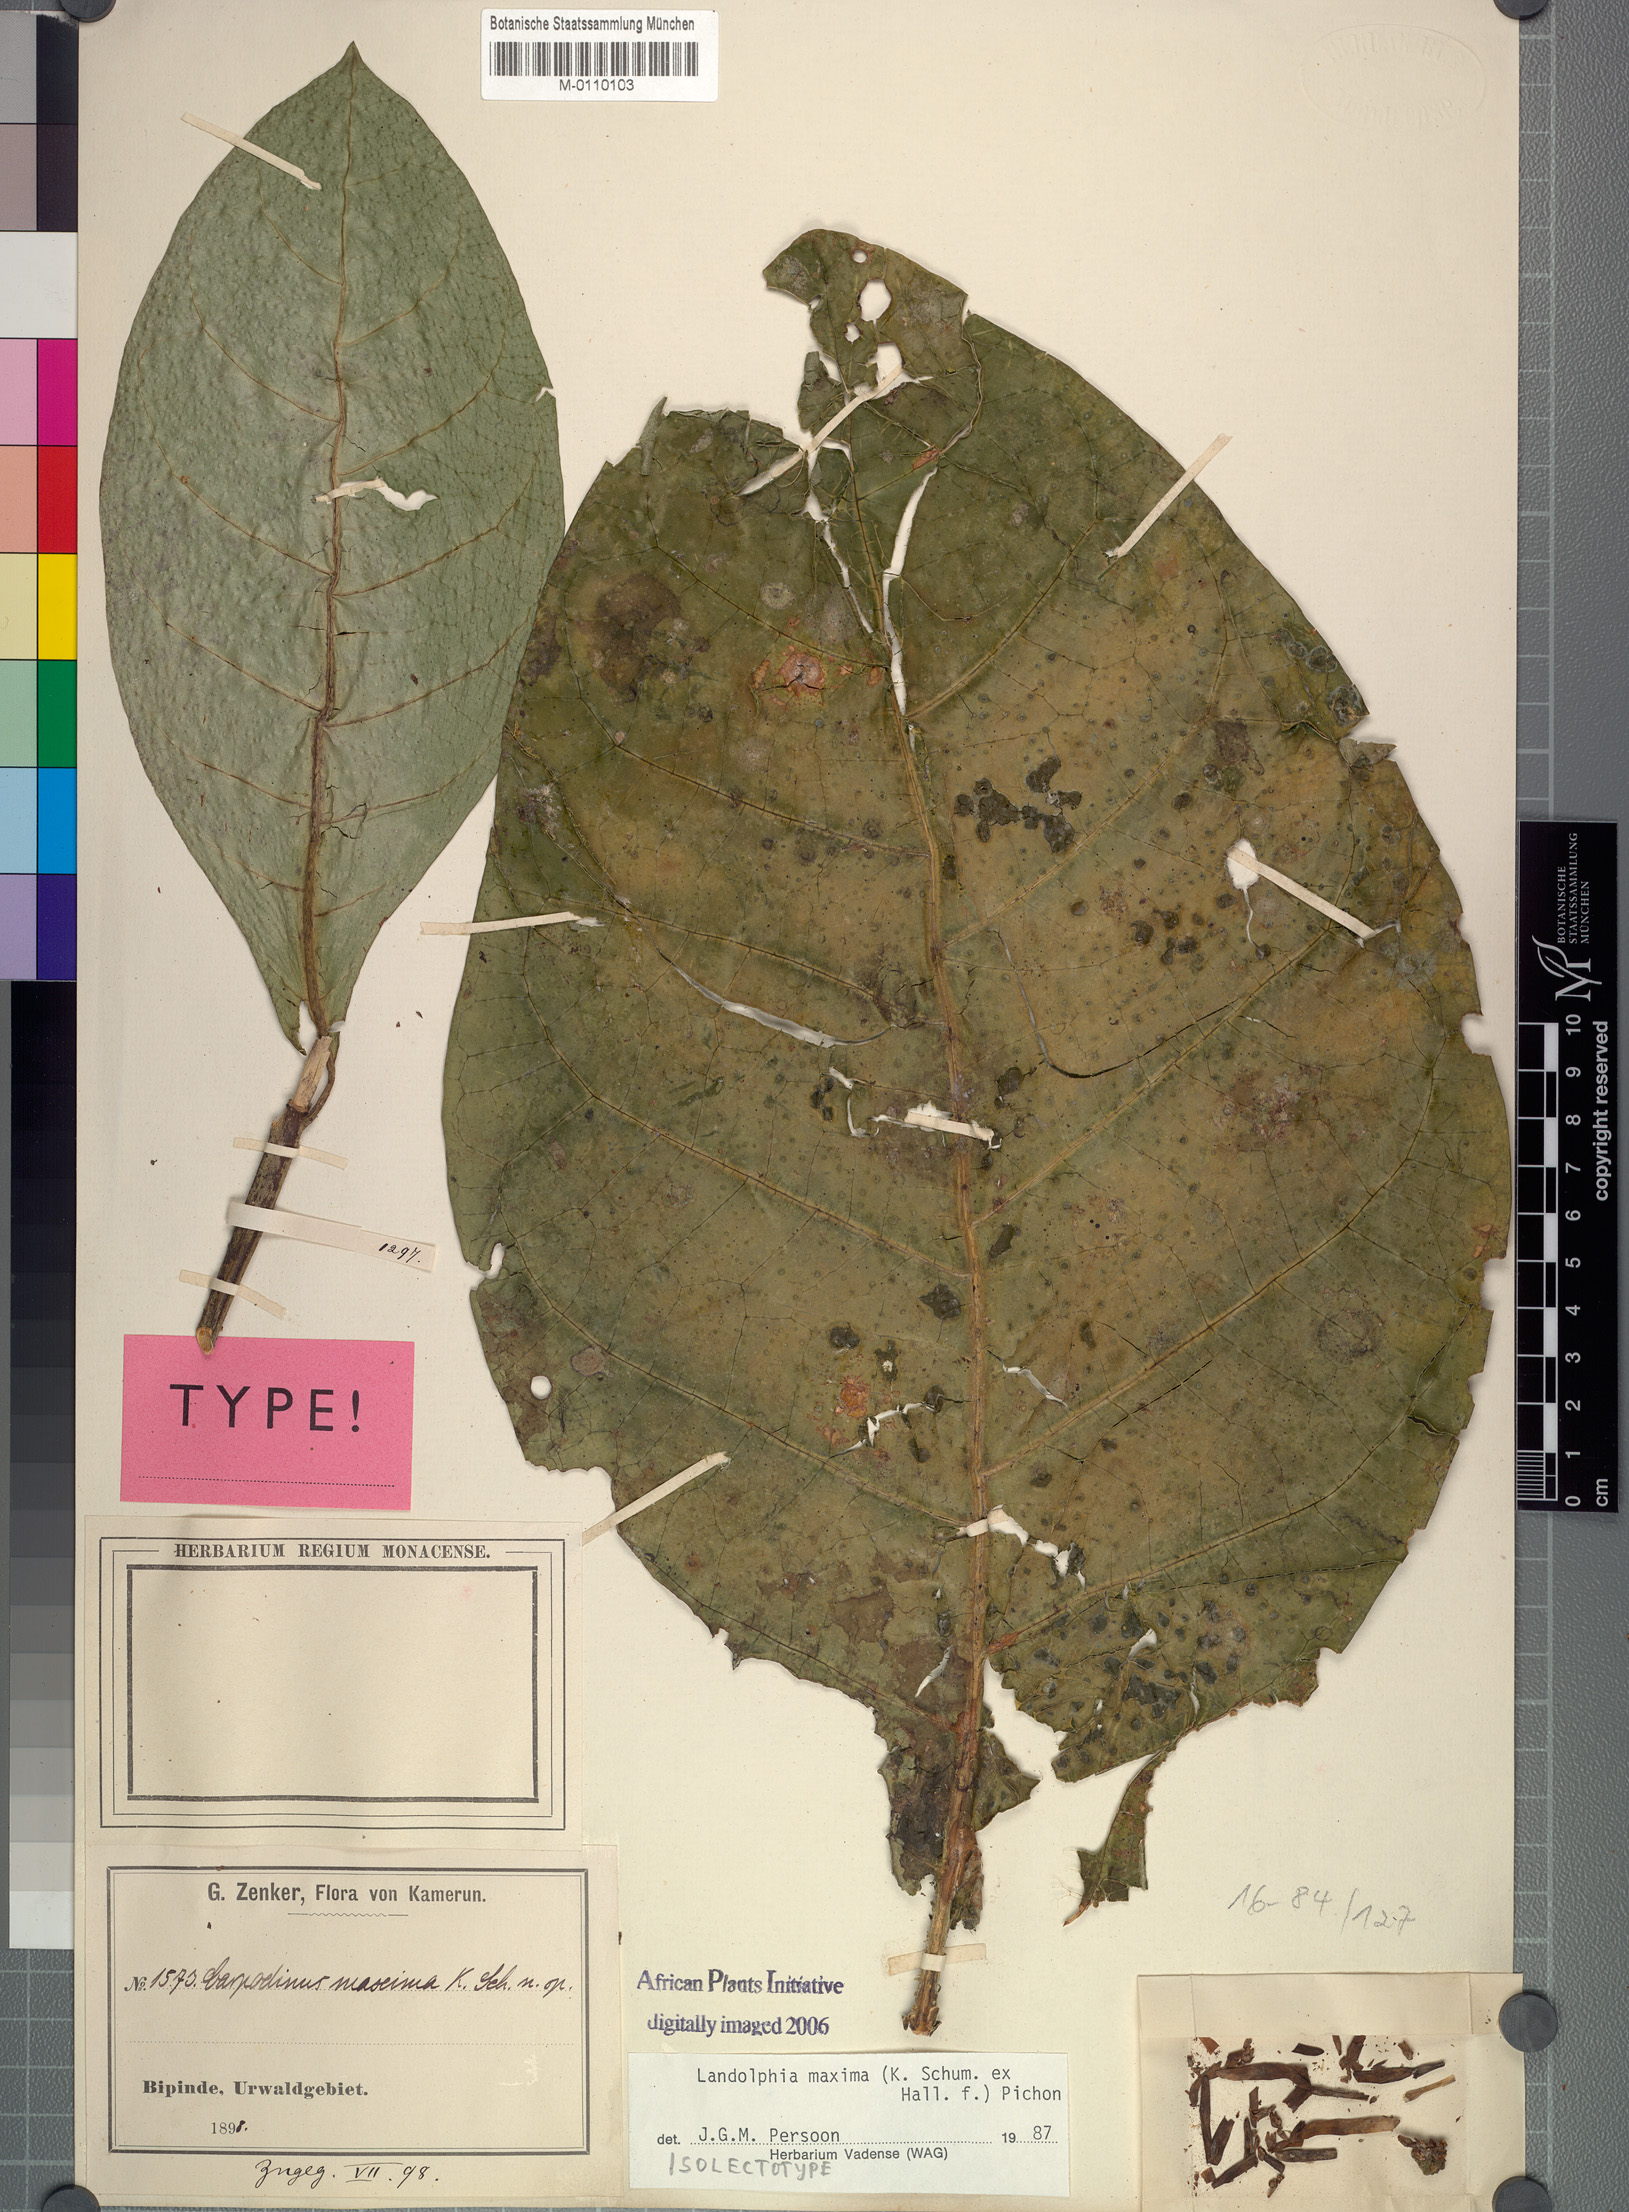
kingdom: Plantae
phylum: Tracheophyta
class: Magnoliopsida
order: Gentianales
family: Apocynaceae
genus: Landolphia
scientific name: Landolphia maxima
